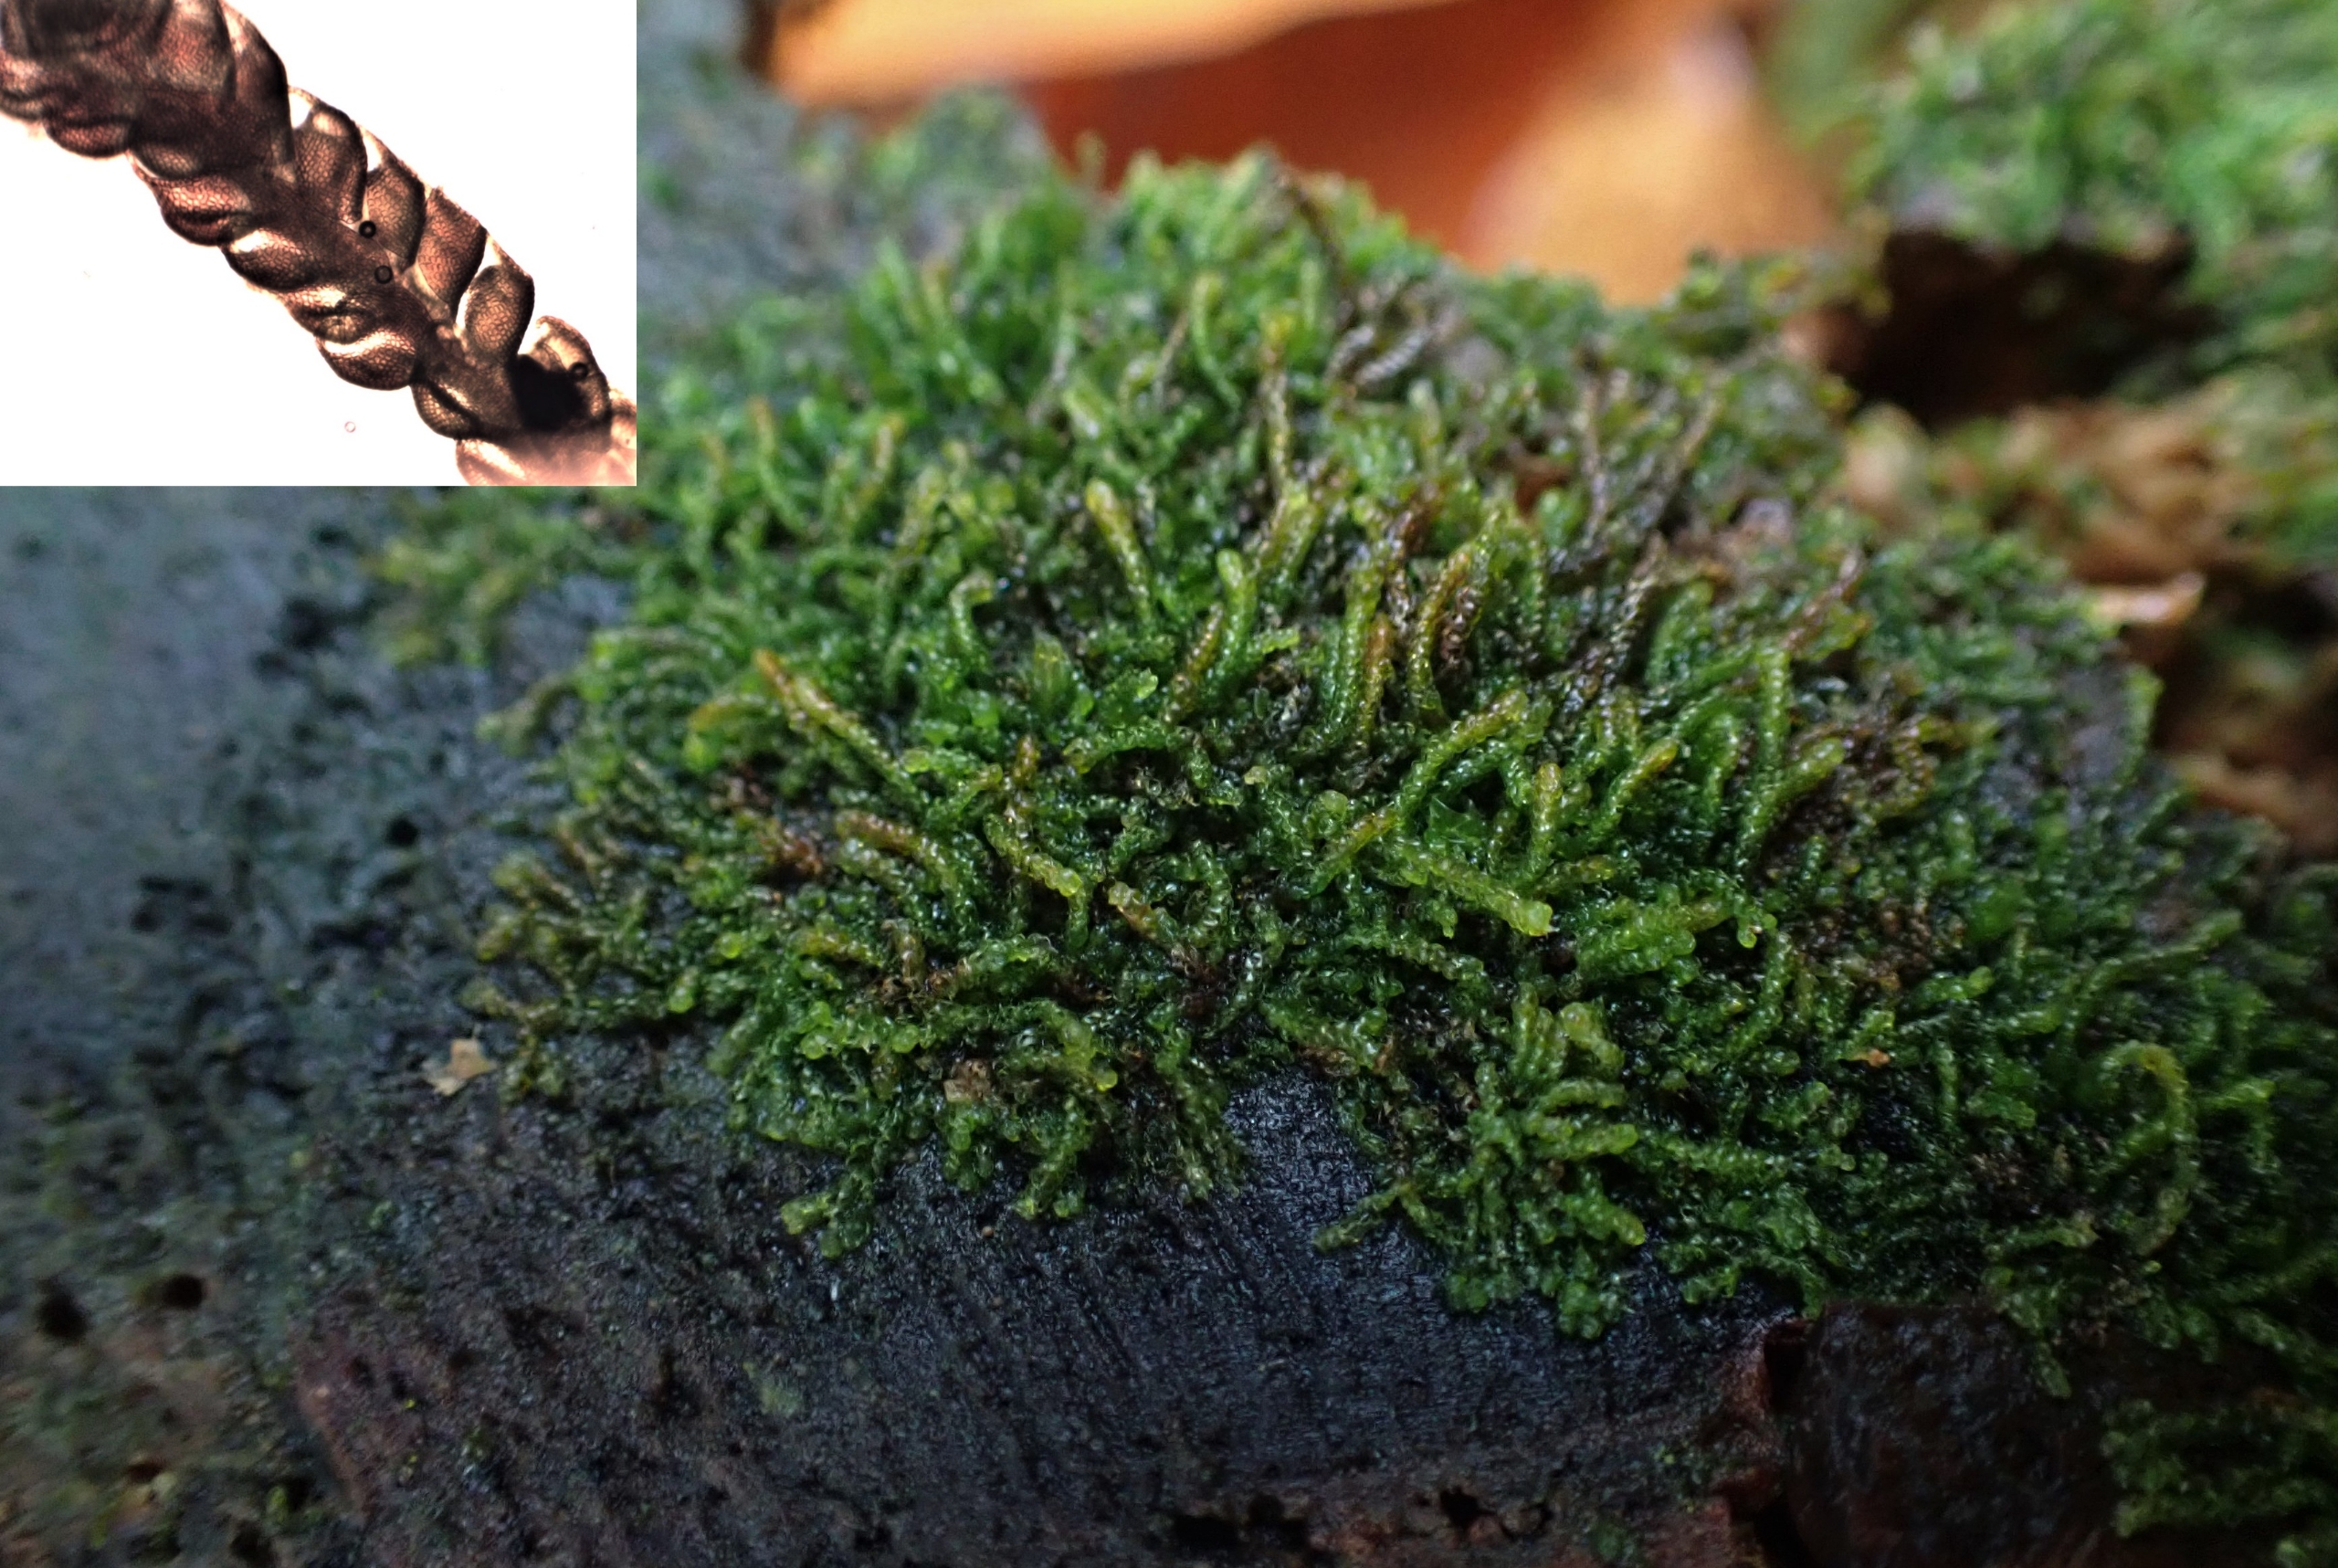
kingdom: Plantae
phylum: Marchantiophyta
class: Jungermanniopsida
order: Jungermanniales
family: Cephaloziaceae
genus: Nowellia
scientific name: Nowellia curvifolia
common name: Krumbladet stødmos
